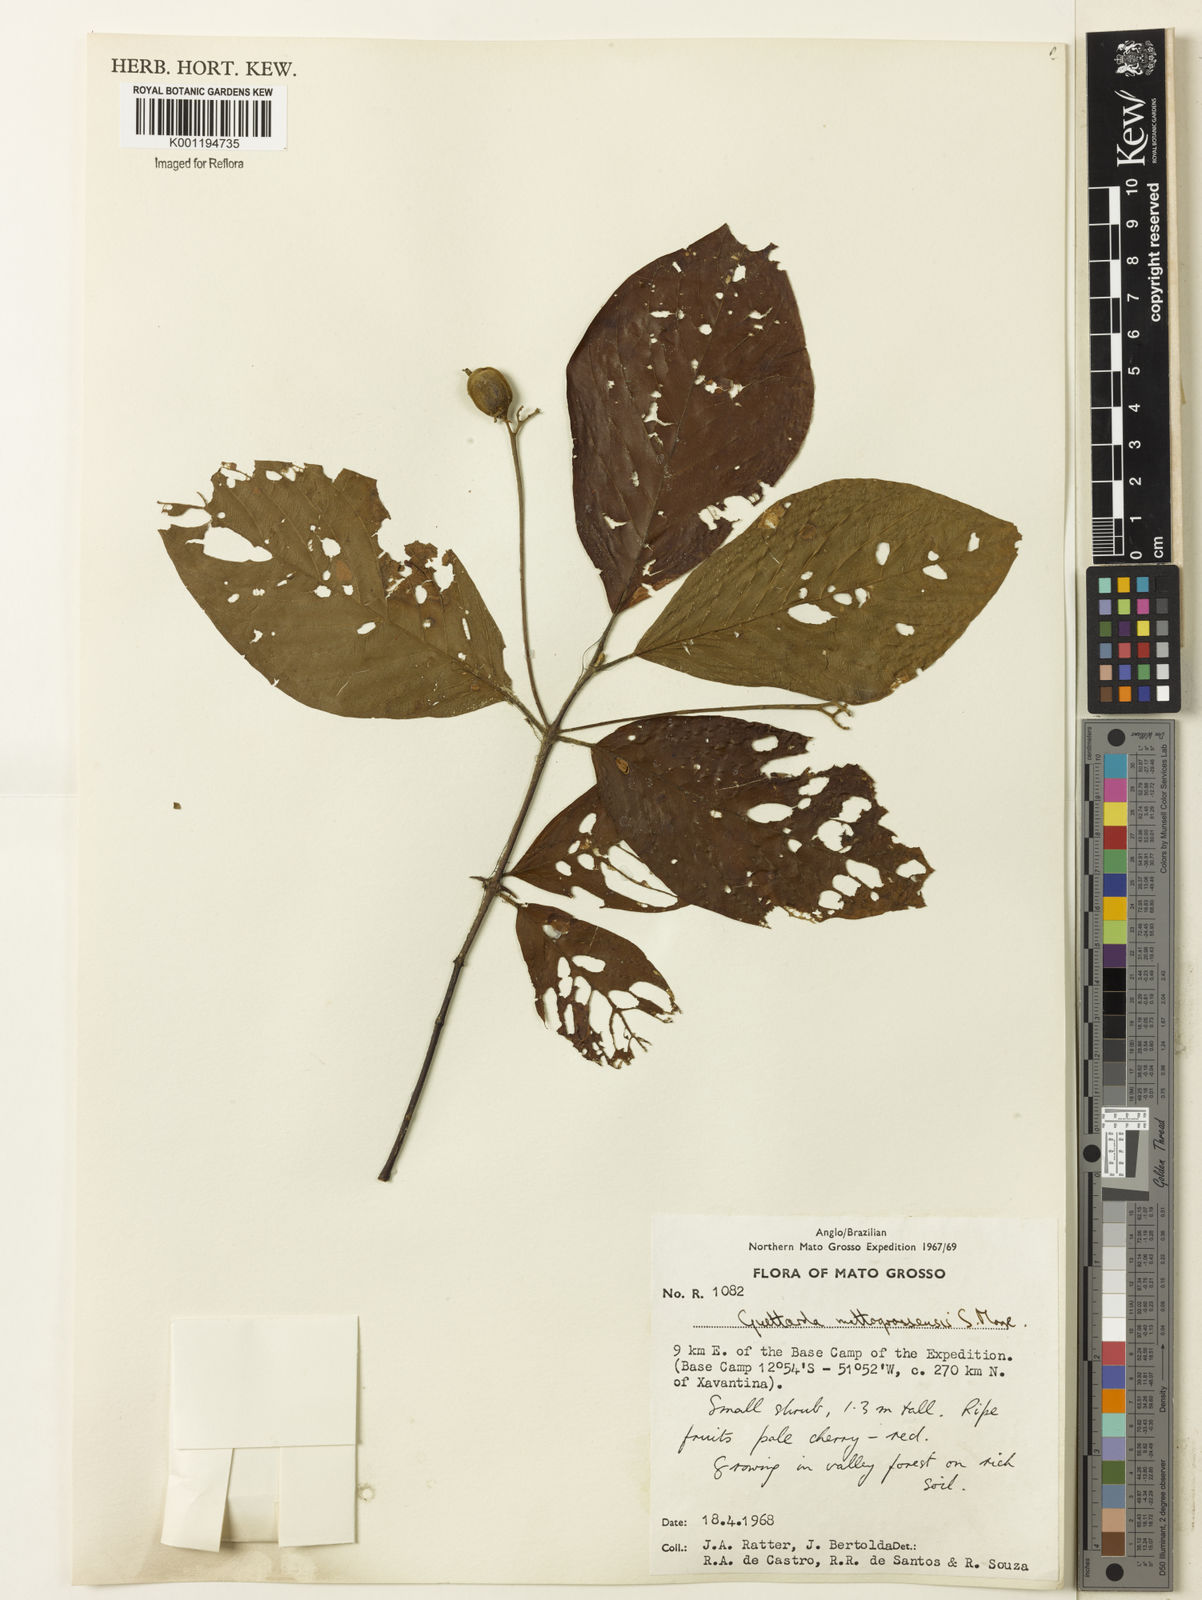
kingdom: Plantae
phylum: Tracheophyta
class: Magnoliopsida
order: Gentianales
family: Rubiaceae
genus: Guettarda
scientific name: Guettarda mattogrossensis
